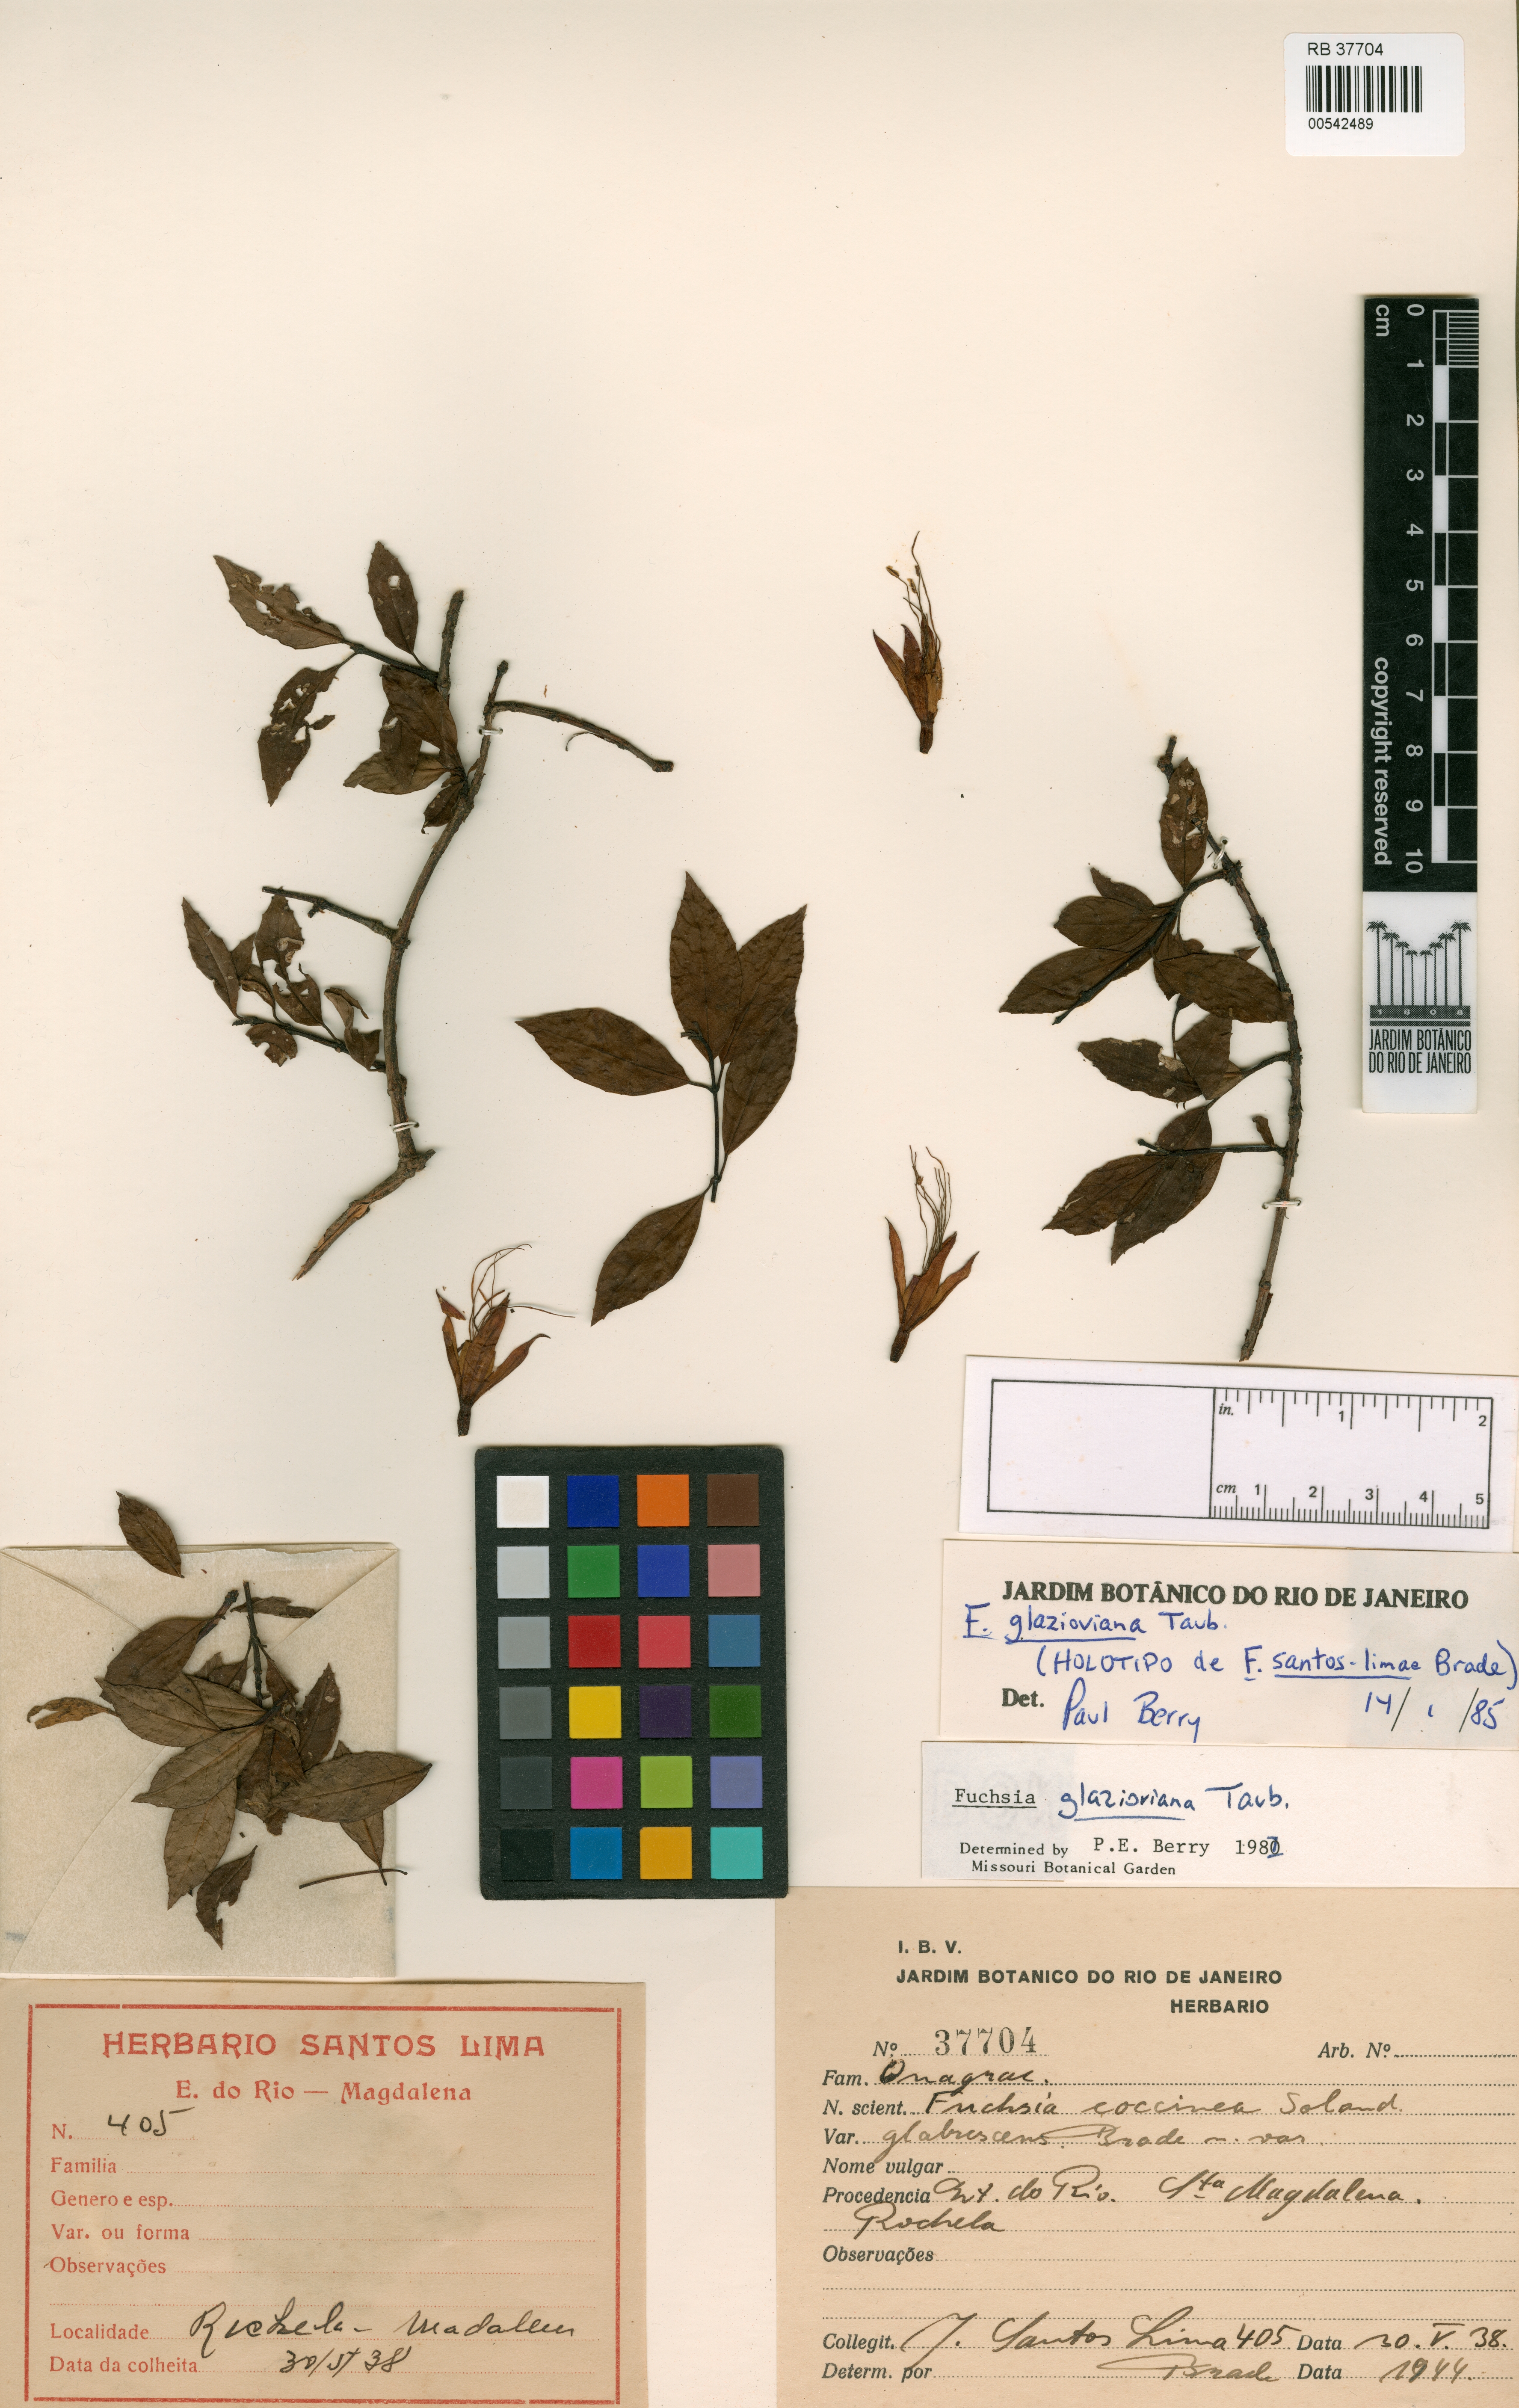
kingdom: Plantae
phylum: Tracheophyta
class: Magnoliopsida
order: Myrtales
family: Onagraceae
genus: Fuchsia
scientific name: Fuchsia glazioviana
